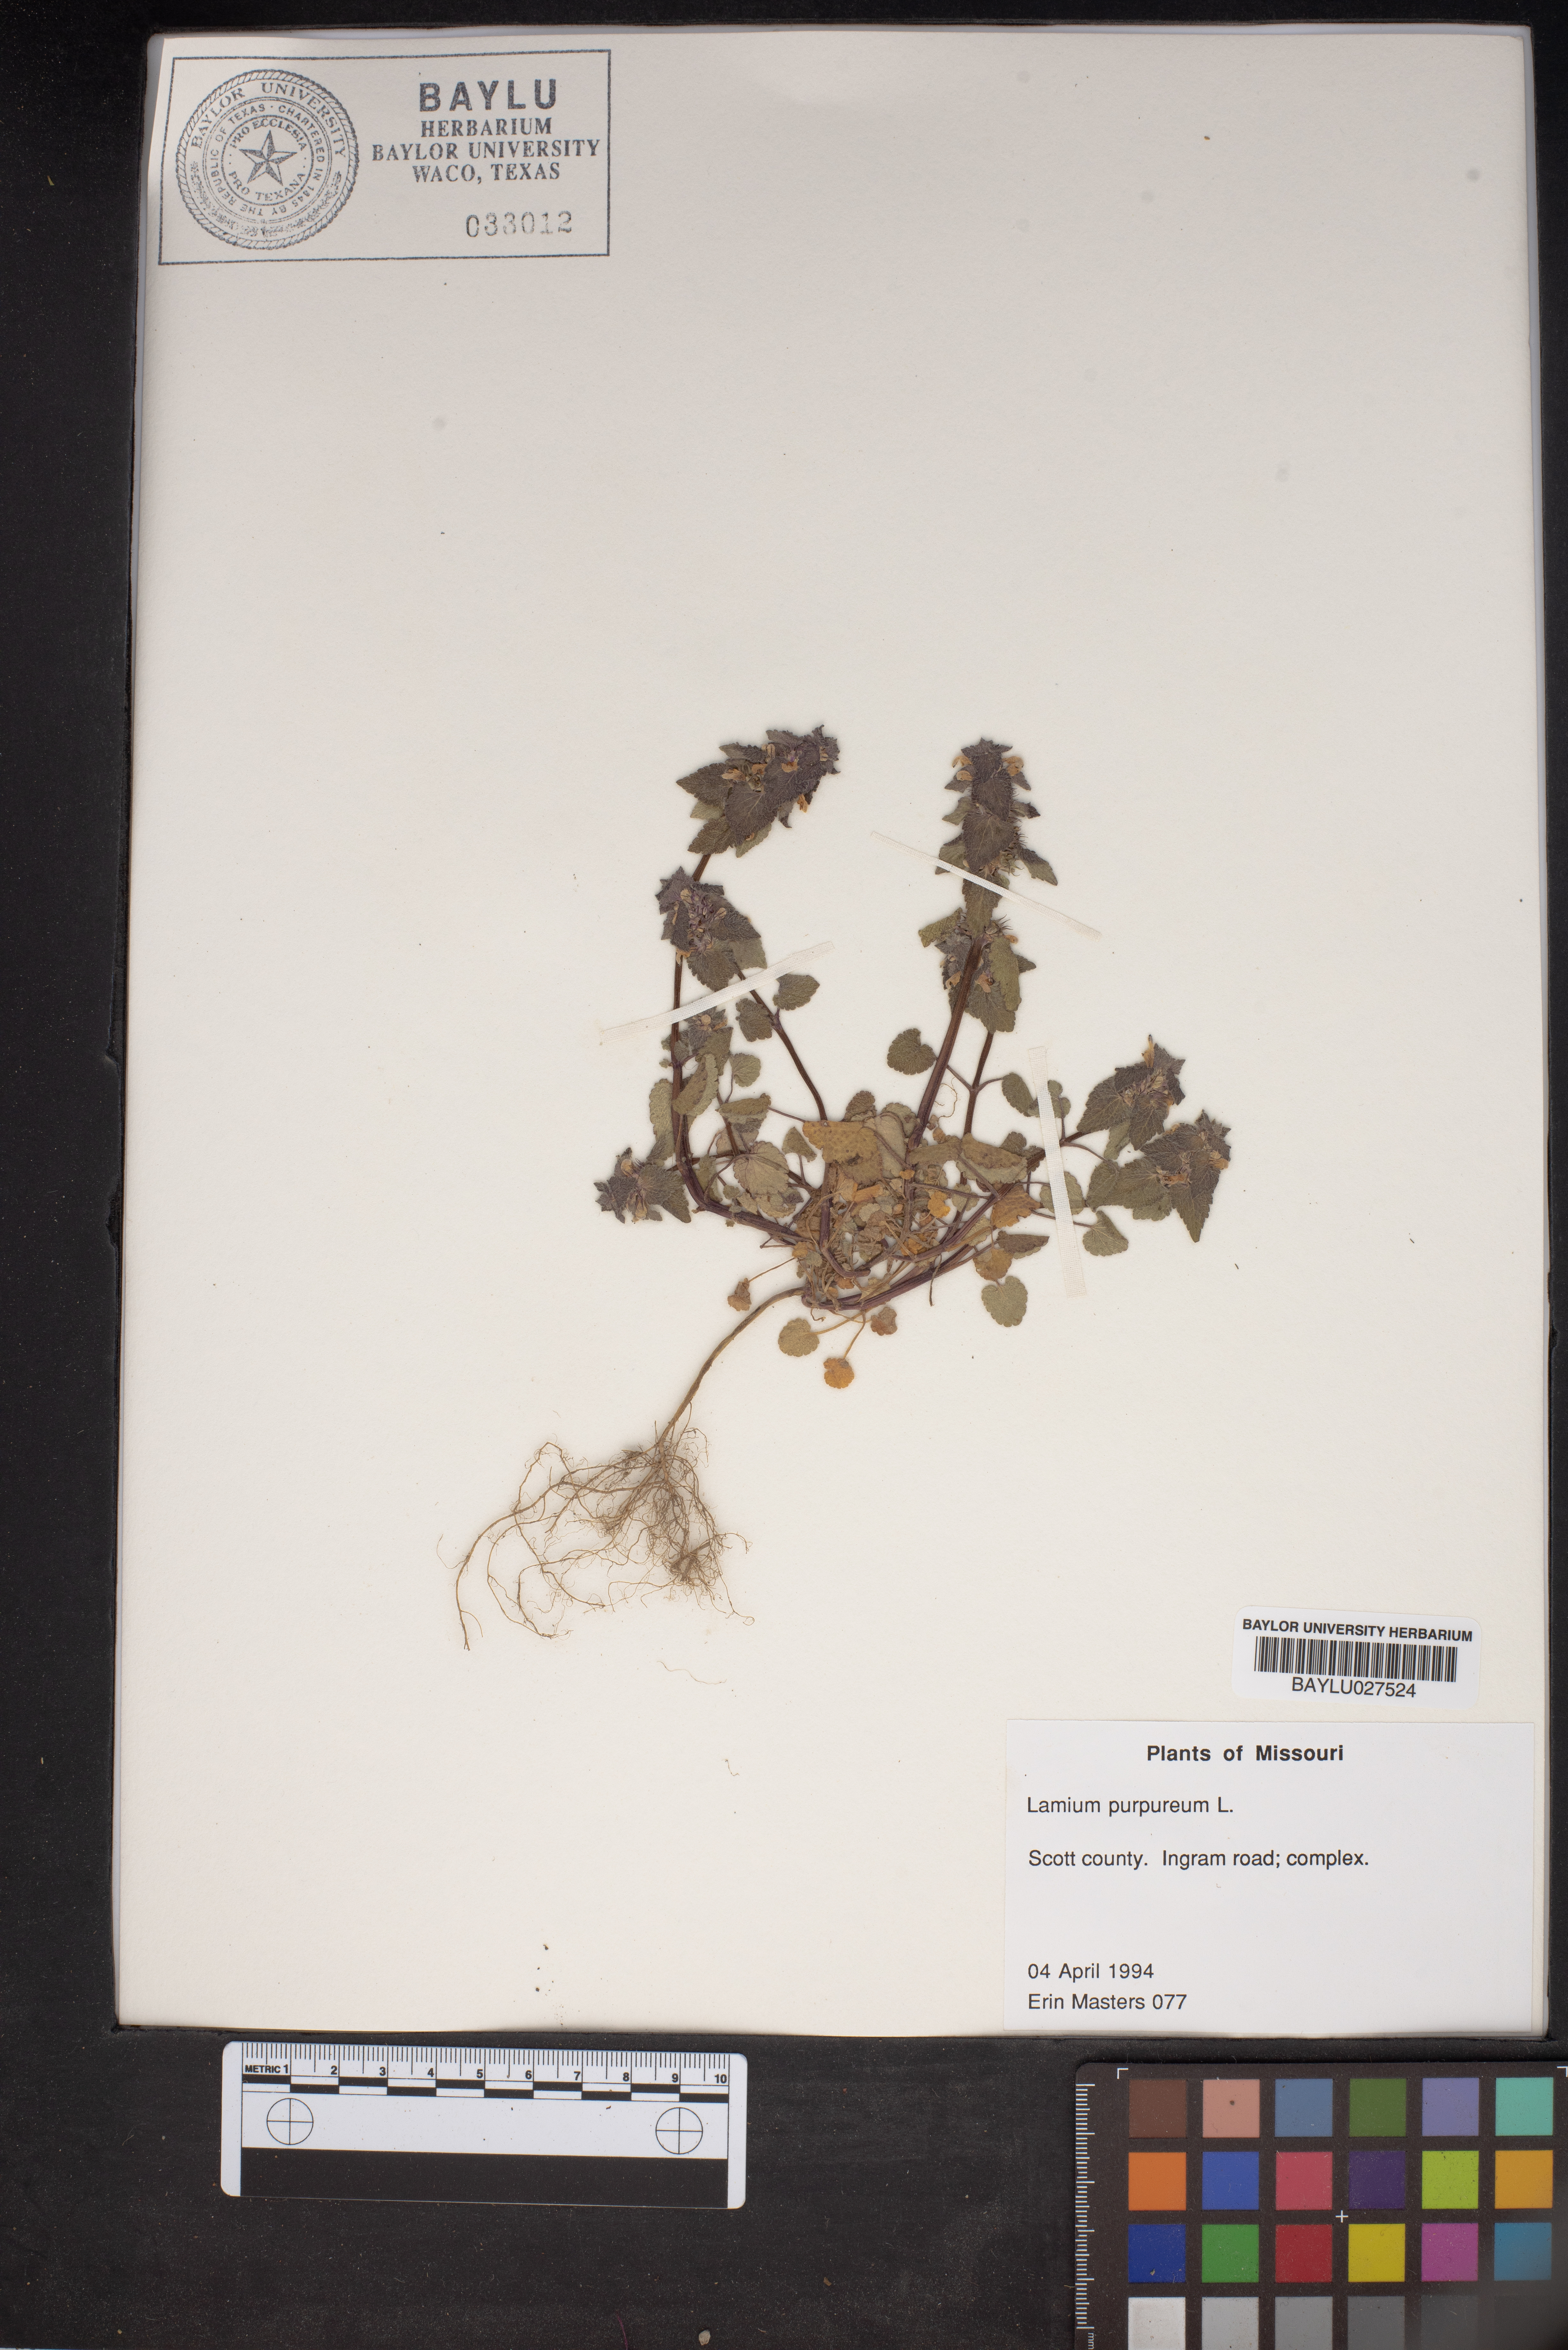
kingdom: Plantae
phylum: Tracheophyta
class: Magnoliopsida
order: Lamiales
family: Lamiaceae
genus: Lamium
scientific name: Lamium purpureum
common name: Red dead-nettle
